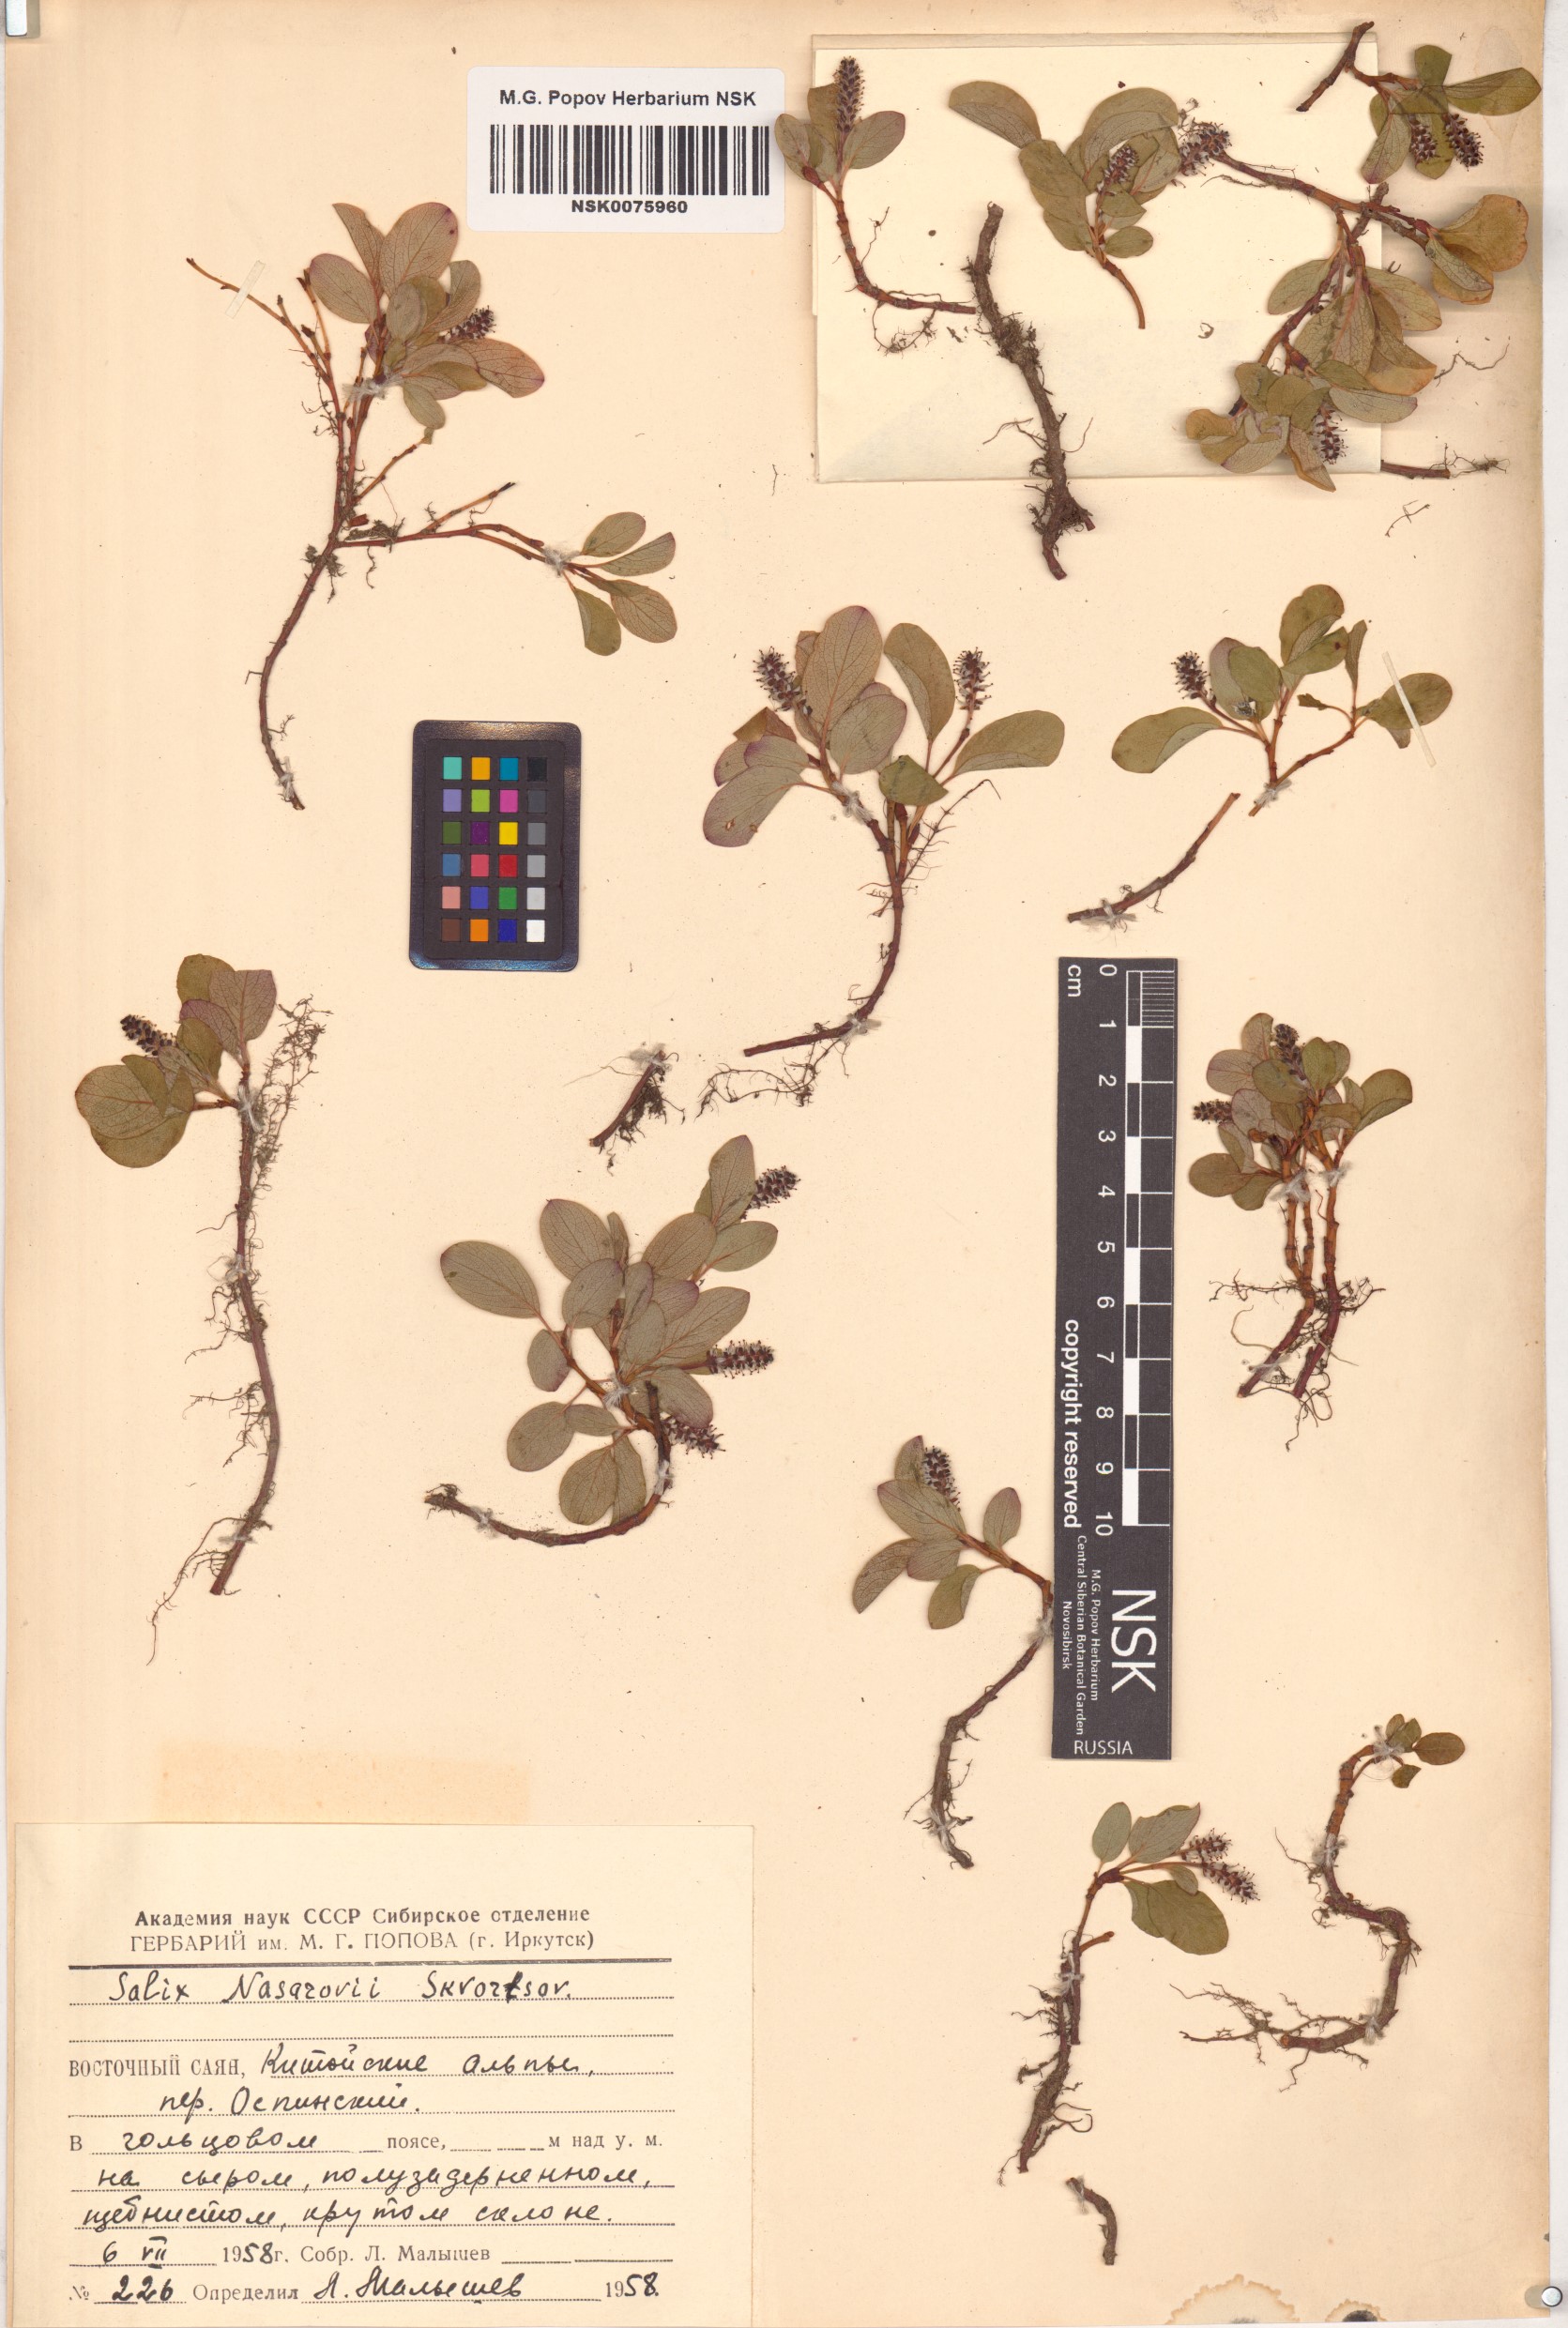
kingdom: Plantae
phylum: Tracheophyta
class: Magnoliopsida
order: Malpighiales
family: Salicaceae
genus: Salix
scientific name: Salix nasarovii
